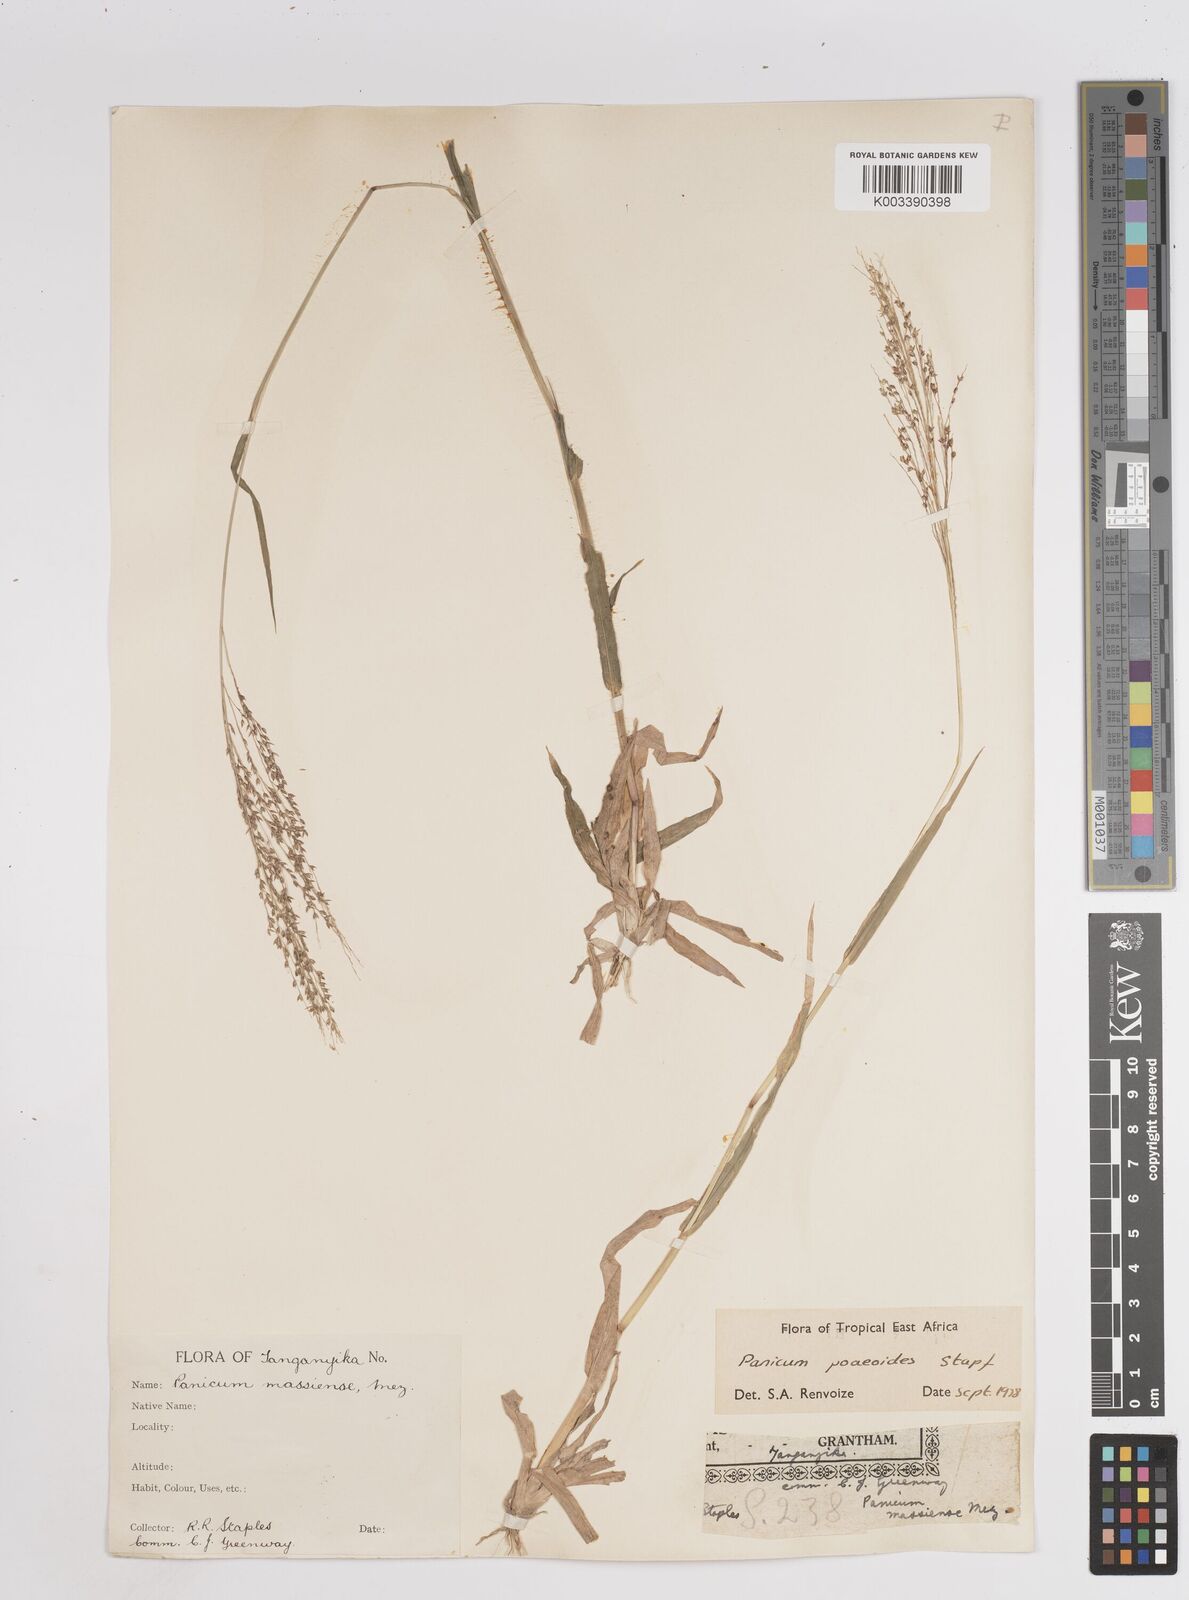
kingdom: Plantae
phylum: Tracheophyta
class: Liliopsida
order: Poales
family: Poaceae
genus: Panicum
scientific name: Panicum
